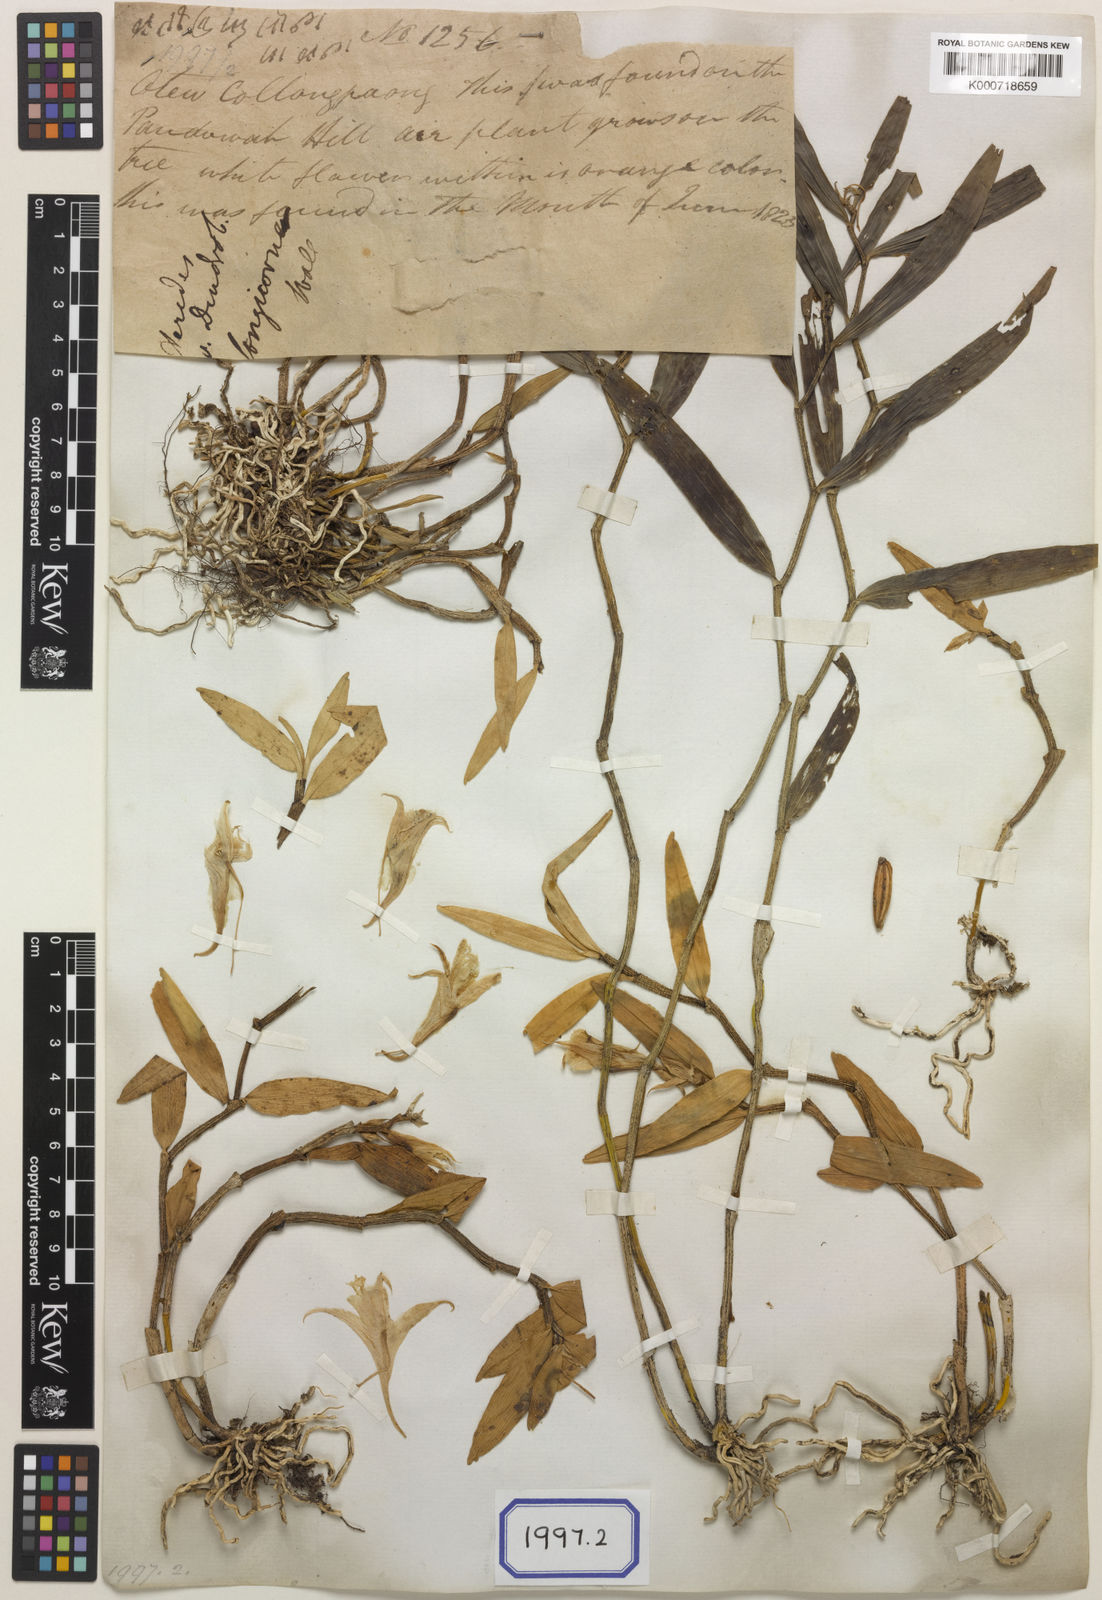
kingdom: Plantae
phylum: Tracheophyta
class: Liliopsida
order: Asparagales
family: Orchidaceae
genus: Dendrobium
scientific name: Dendrobium longicornu
